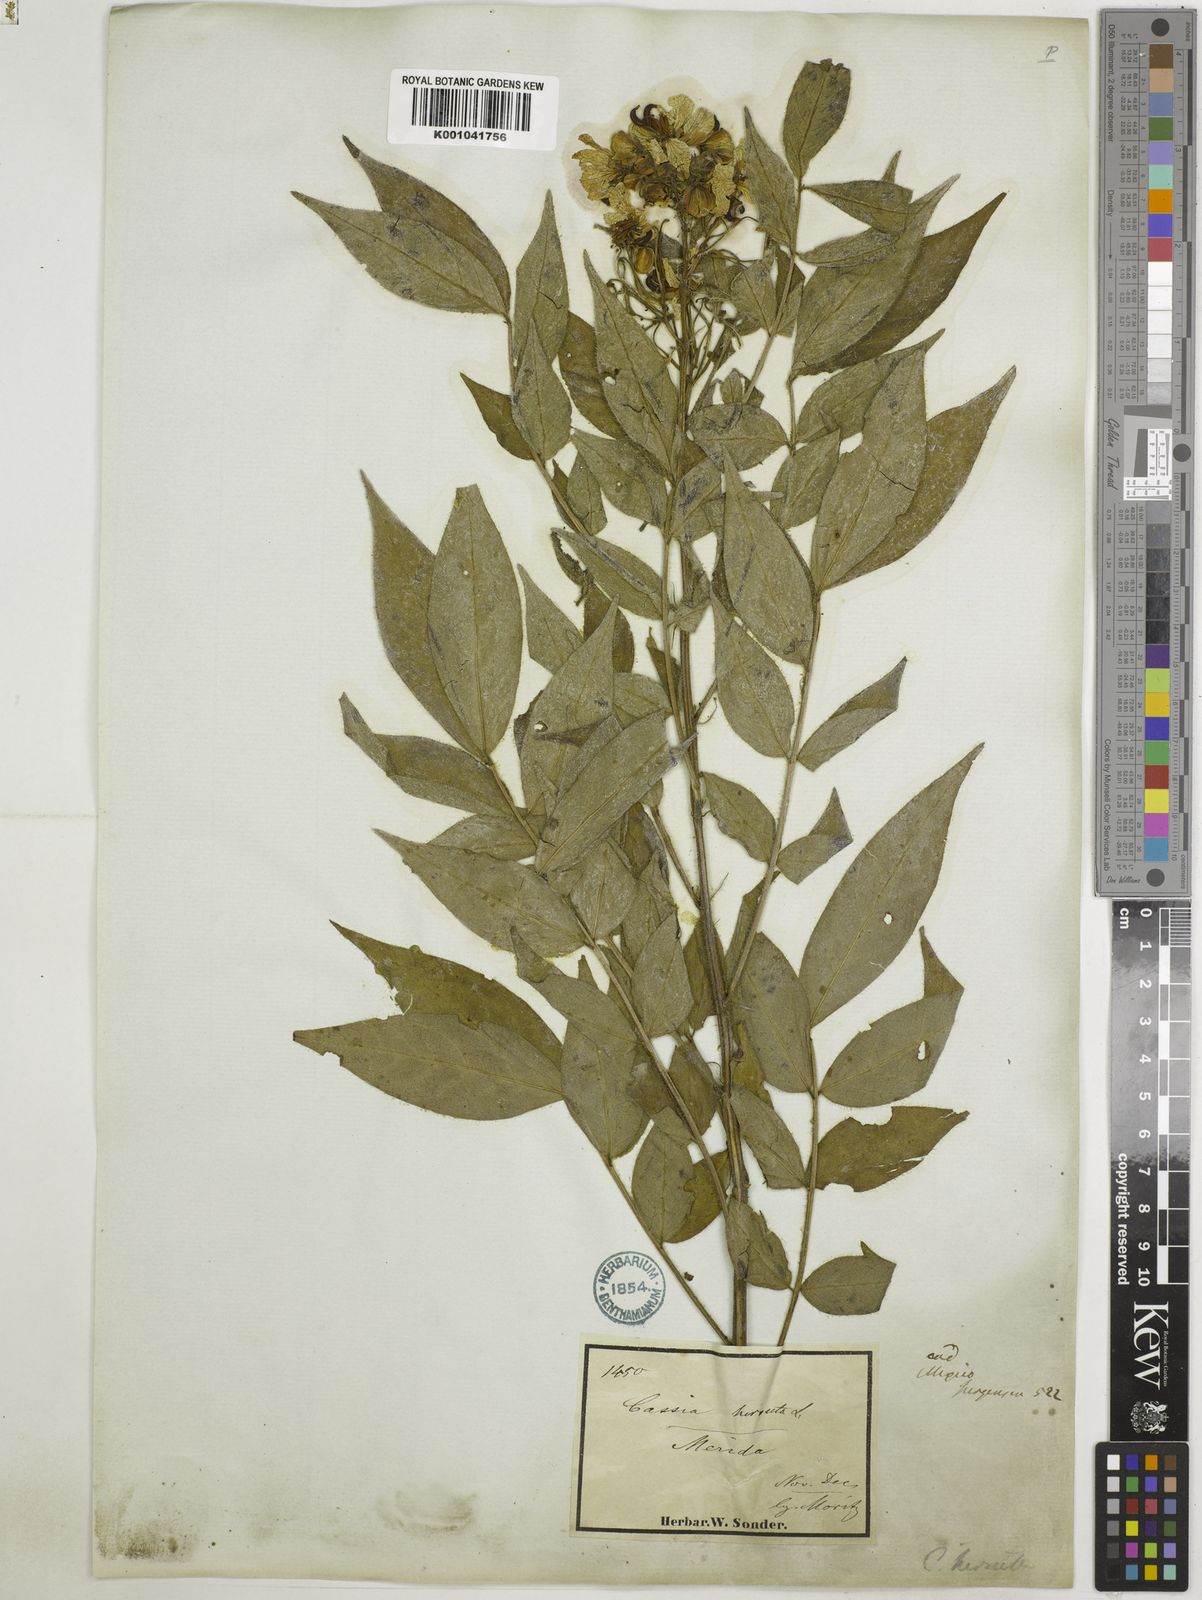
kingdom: Plantae
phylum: Tracheophyta
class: Magnoliopsida
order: Fabales
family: Fabaceae
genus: Senna
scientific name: Senna hirsuta
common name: Woolly senna
